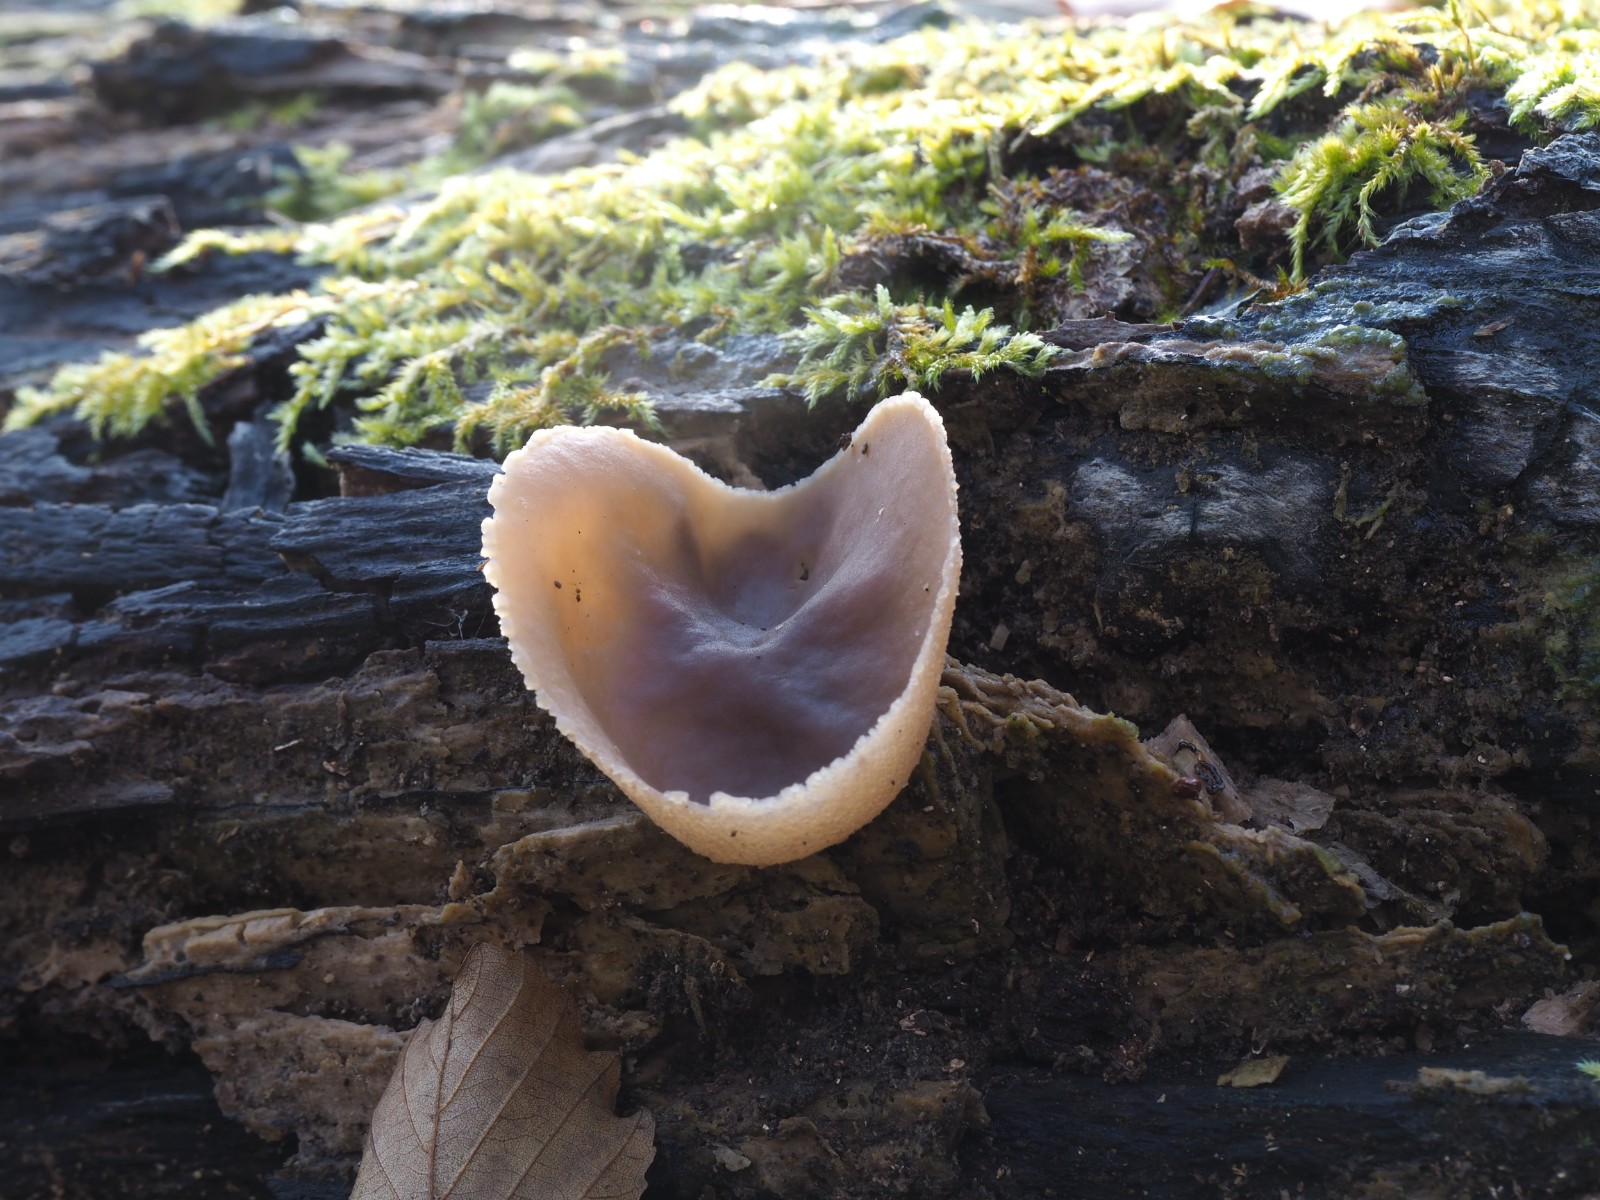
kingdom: Fungi
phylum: Ascomycota
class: Pezizomycetes
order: Pezizales
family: Pezizaceae
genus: Peziza
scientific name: Peziza varia
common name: Ved-bægersvamp
